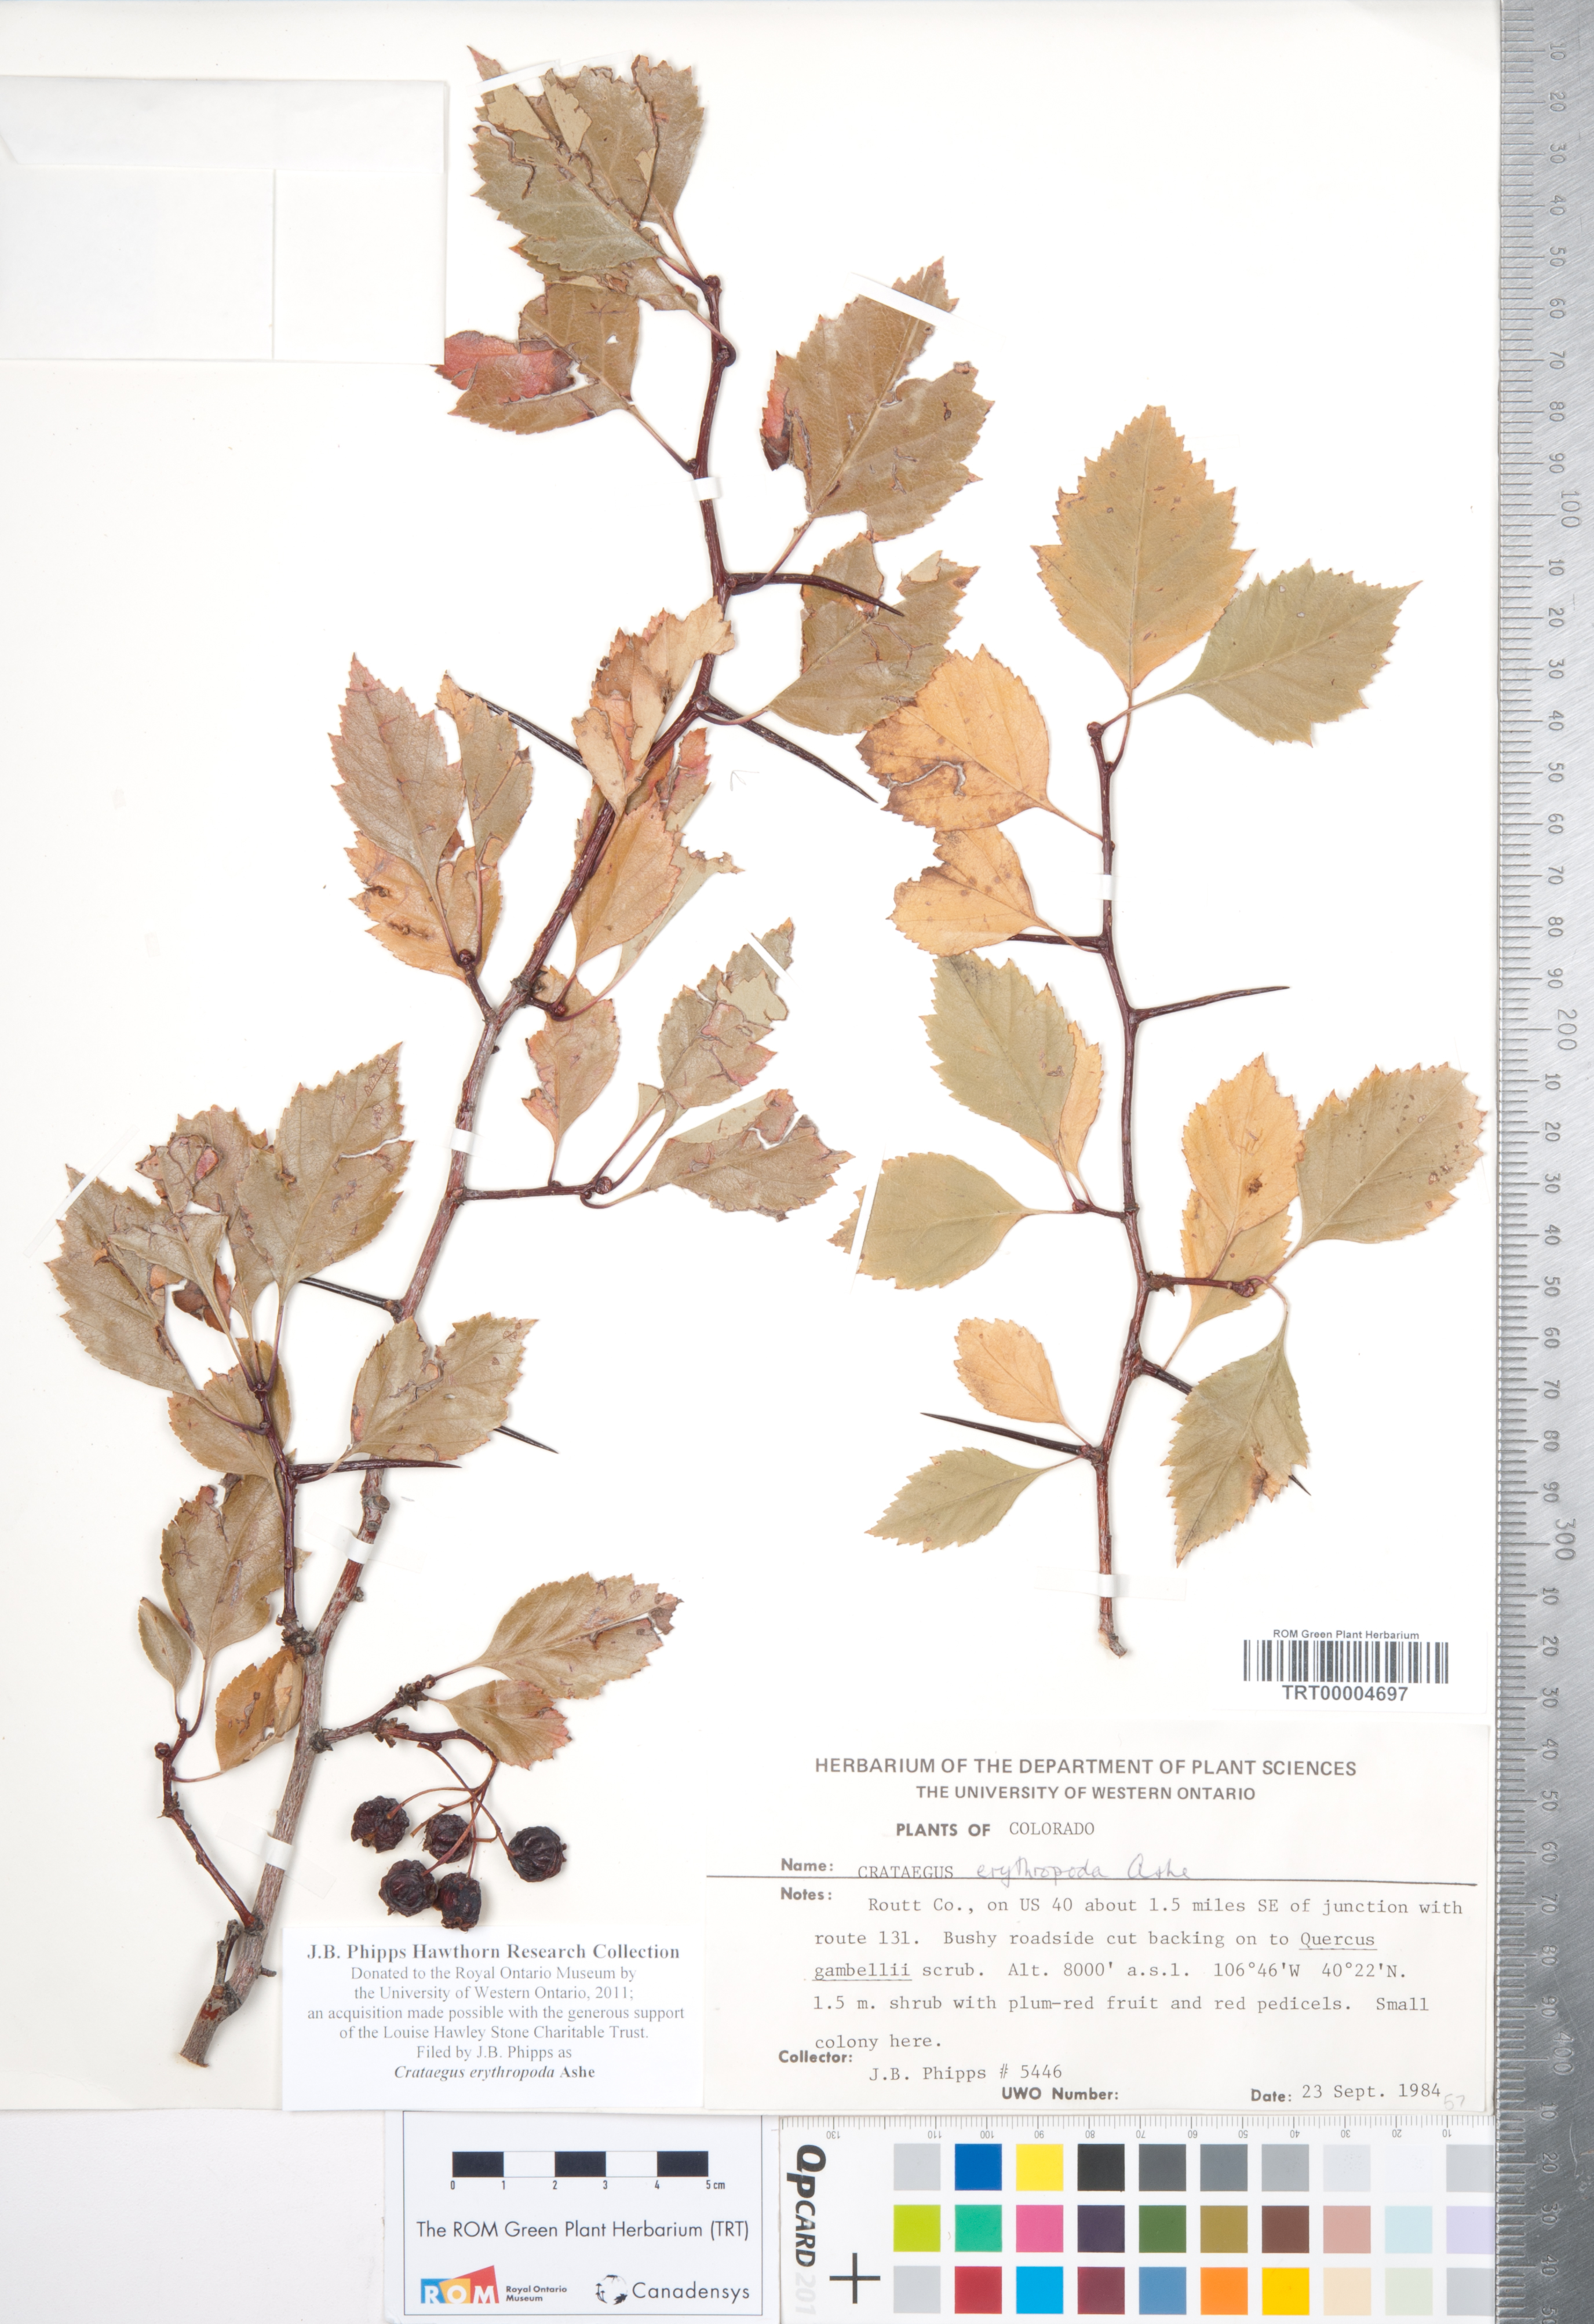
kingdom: Plantae
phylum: Tracheophyta
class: Magnoliopsida
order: Rosales
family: Rosaceae
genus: Crataegus
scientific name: Crataegus erythropoda
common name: Cerro hawthorn
